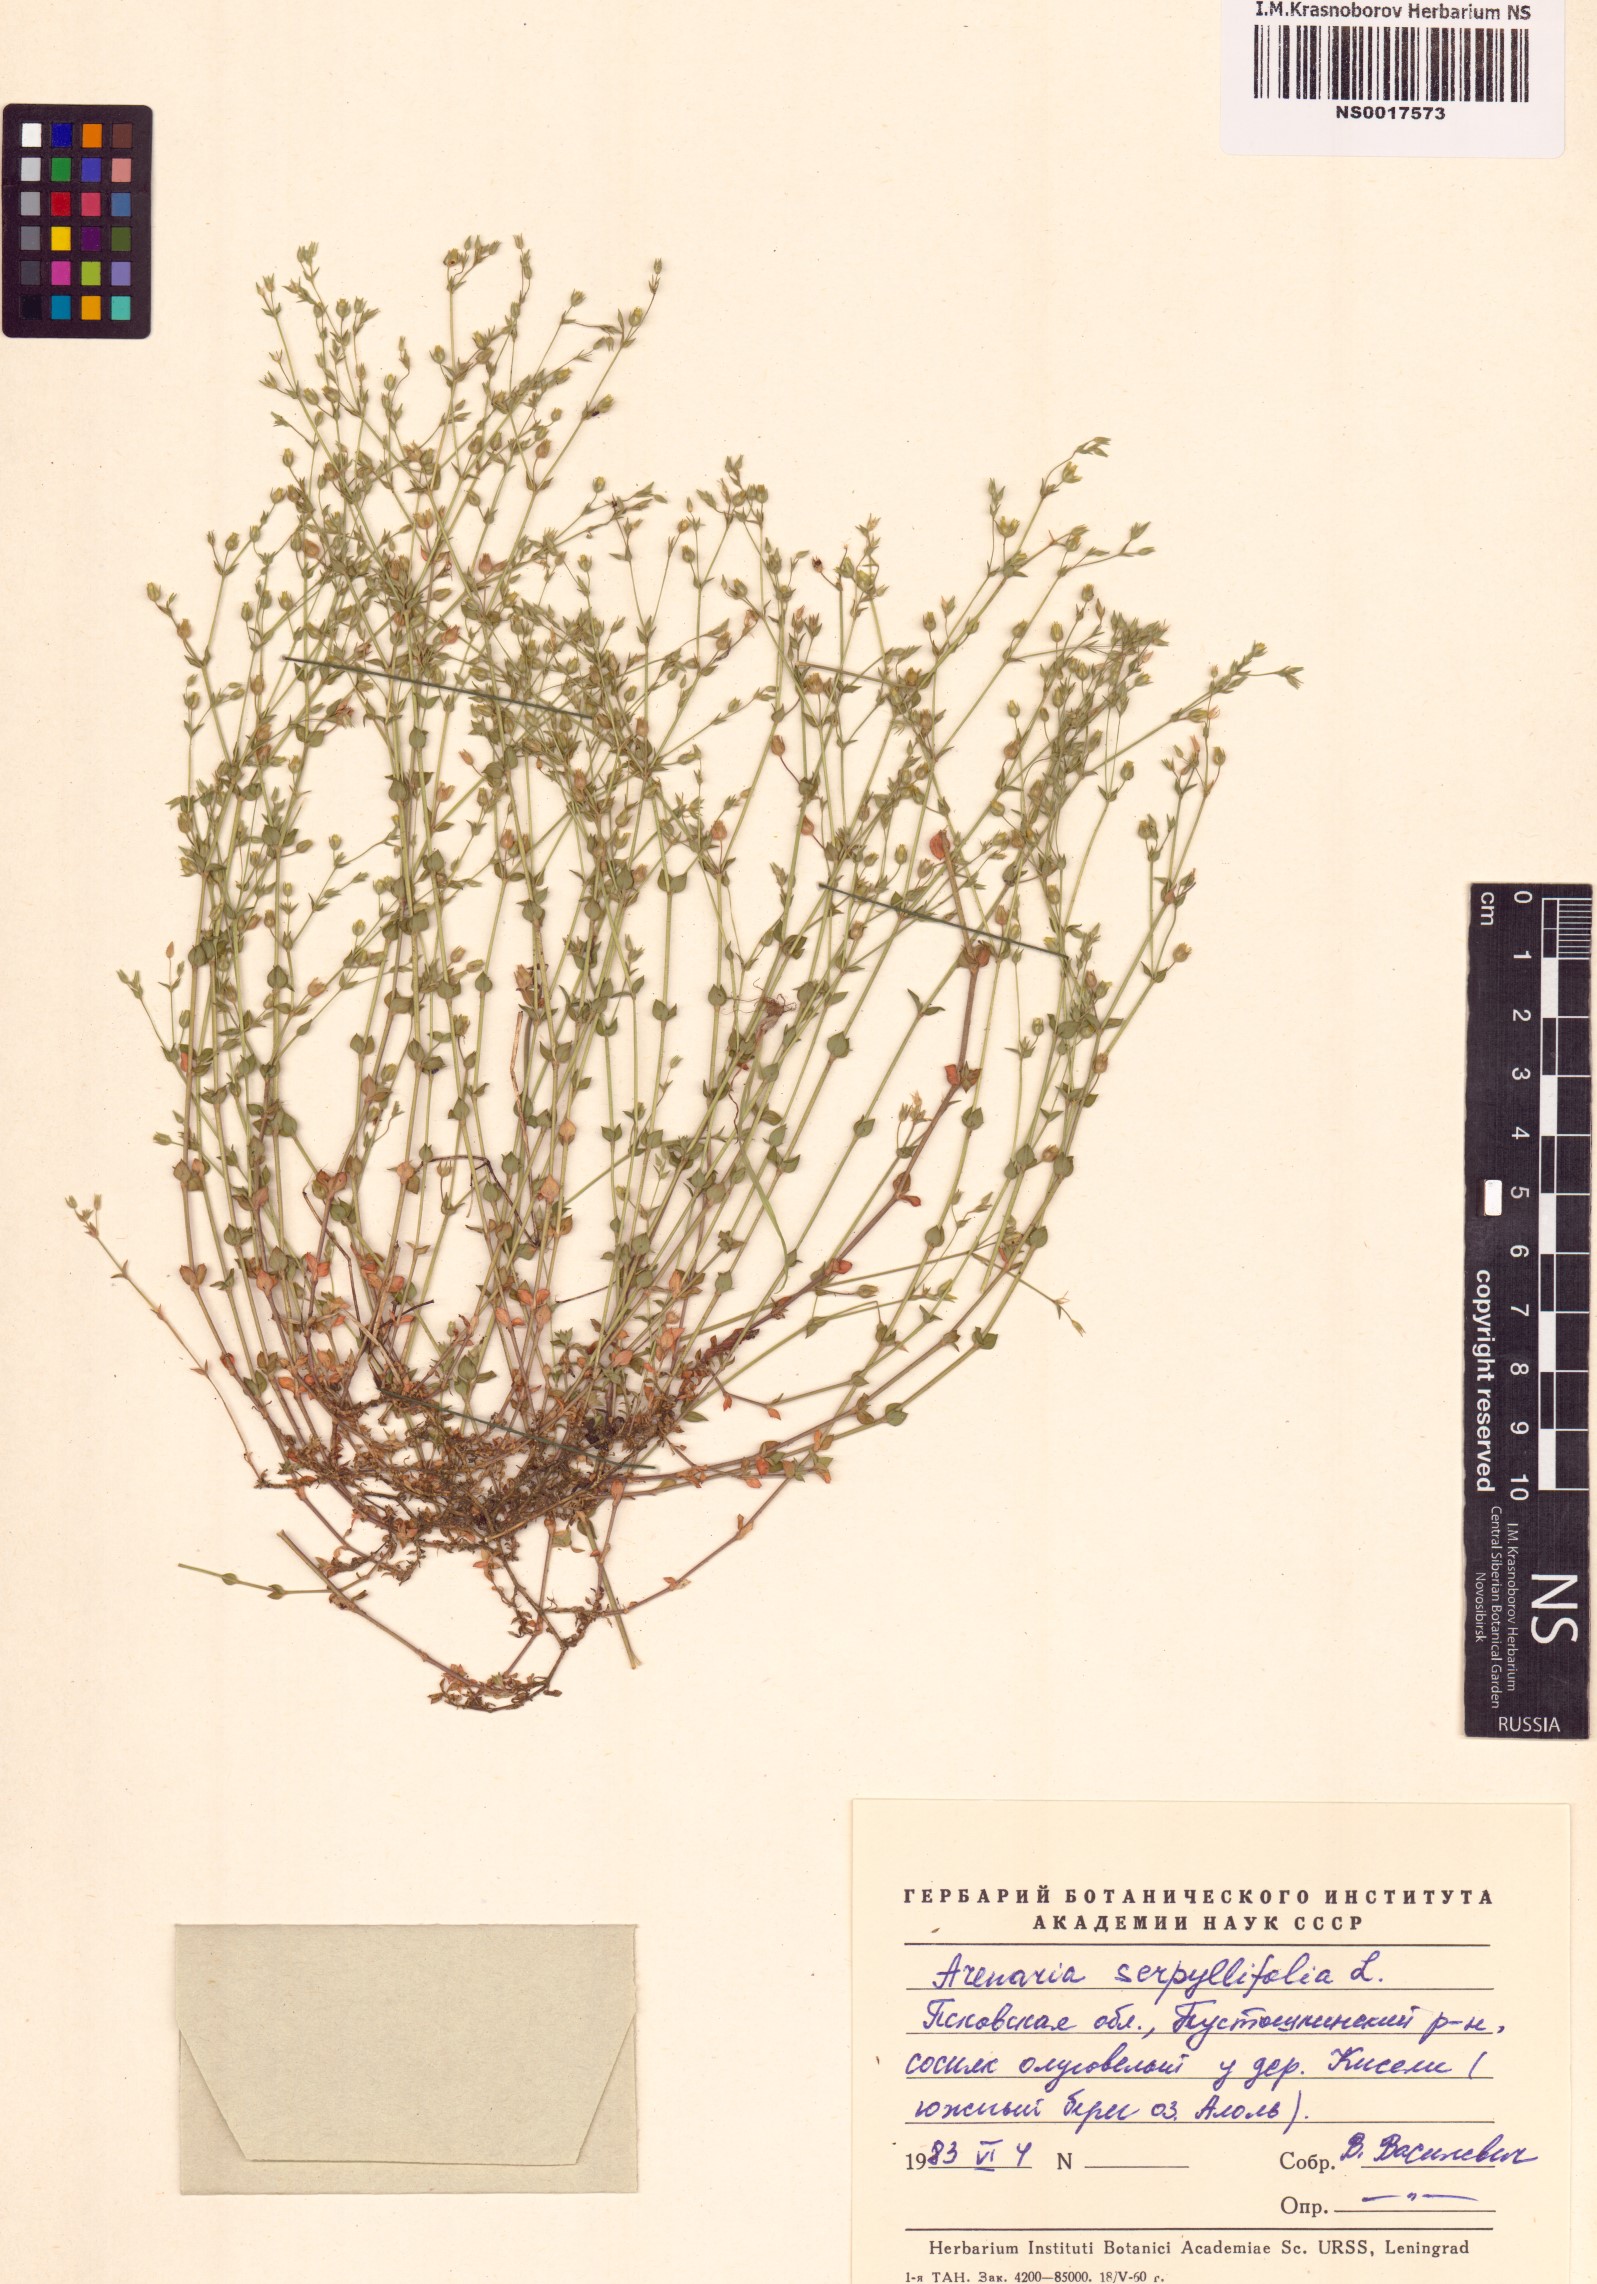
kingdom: Plantae
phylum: Tracheophyta
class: Magnoliopsida
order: Caryophyllales
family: Caryophyllaceae
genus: Arenaria
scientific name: Arenaria serpyllifolia
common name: Thyme-leaved sandwort
